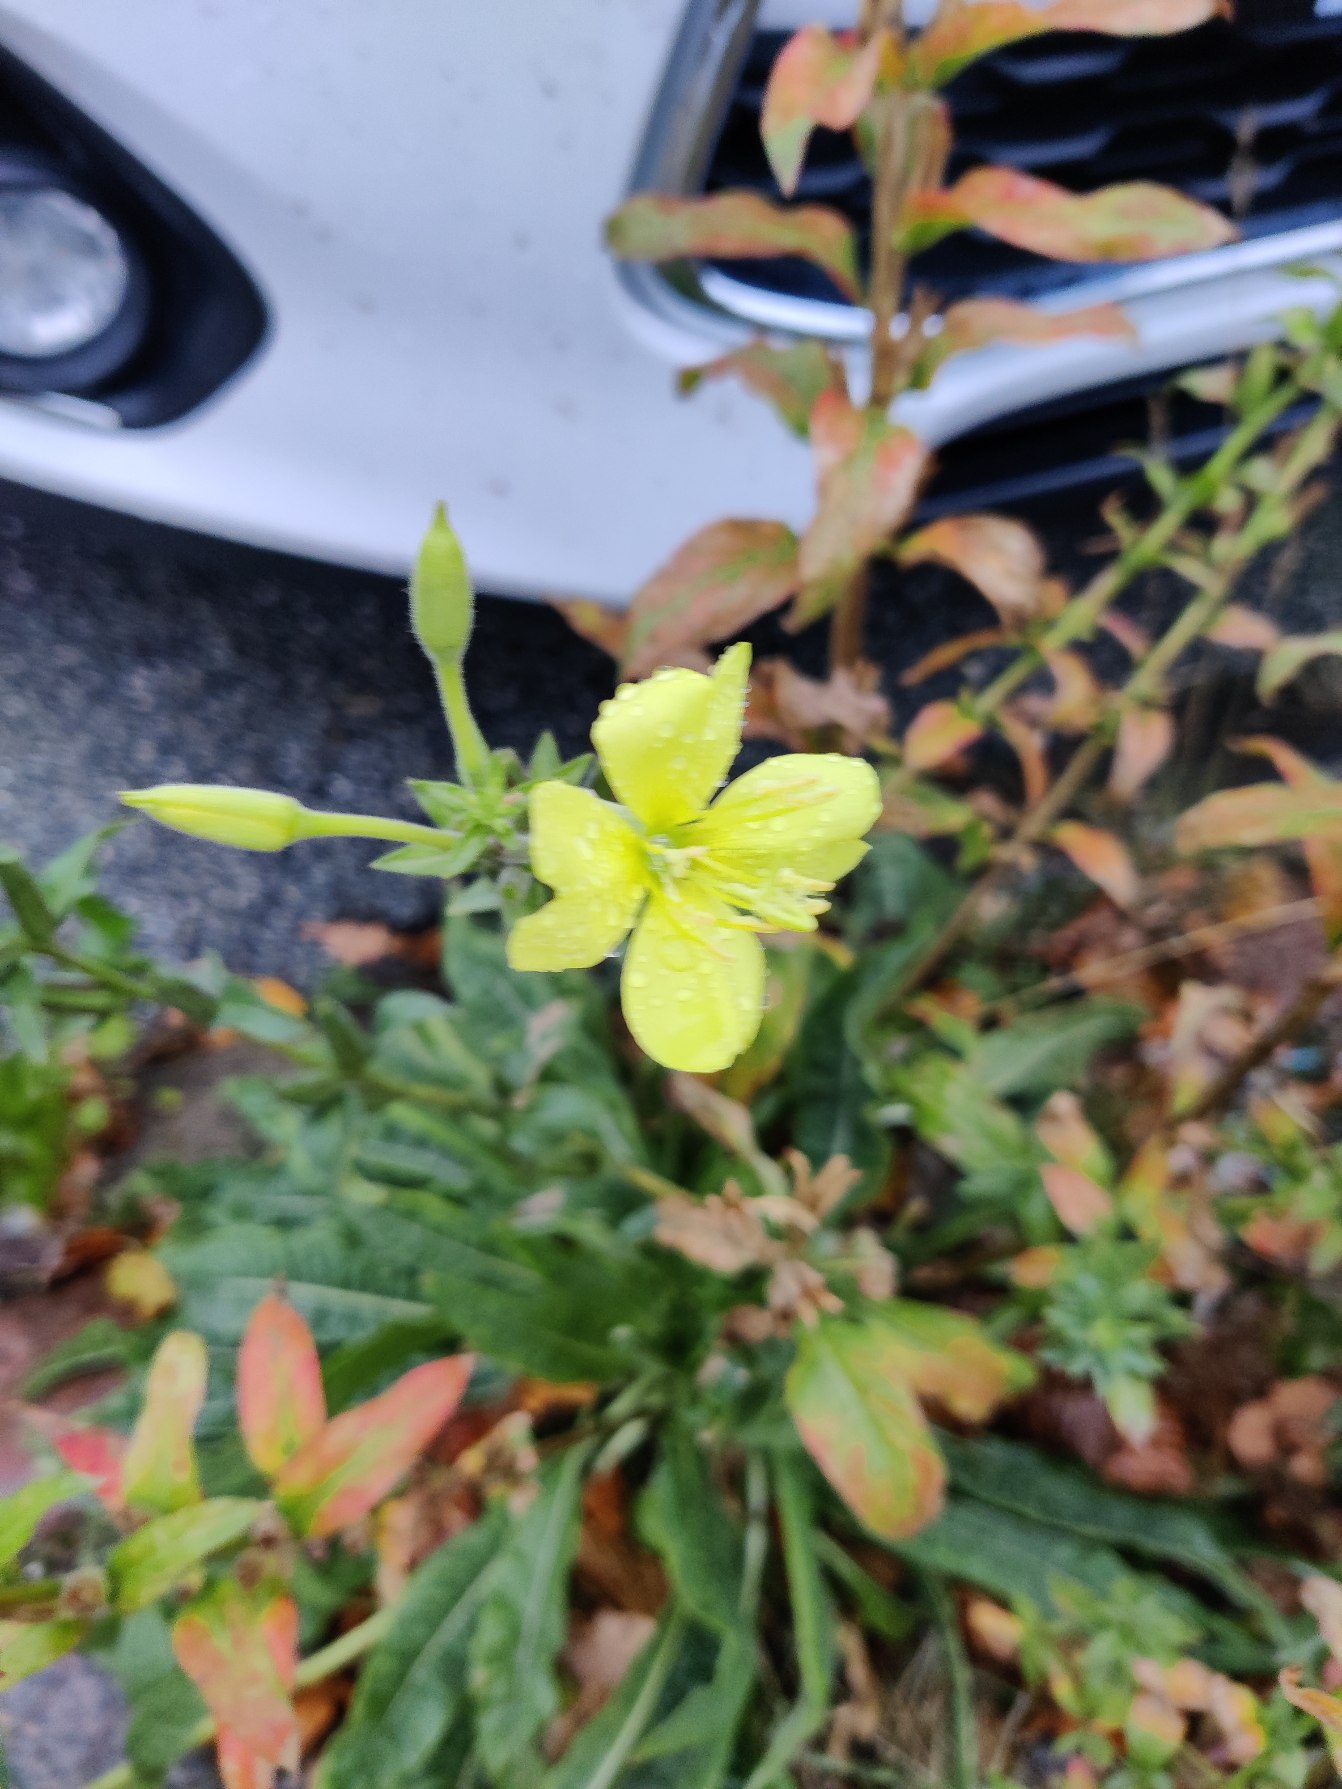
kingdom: Plantae
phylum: Tracheophyta
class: Magnoliopsida
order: Myrtales
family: Onagraceae
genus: Oenothera
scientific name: Oenothera
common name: Natlysslægten
